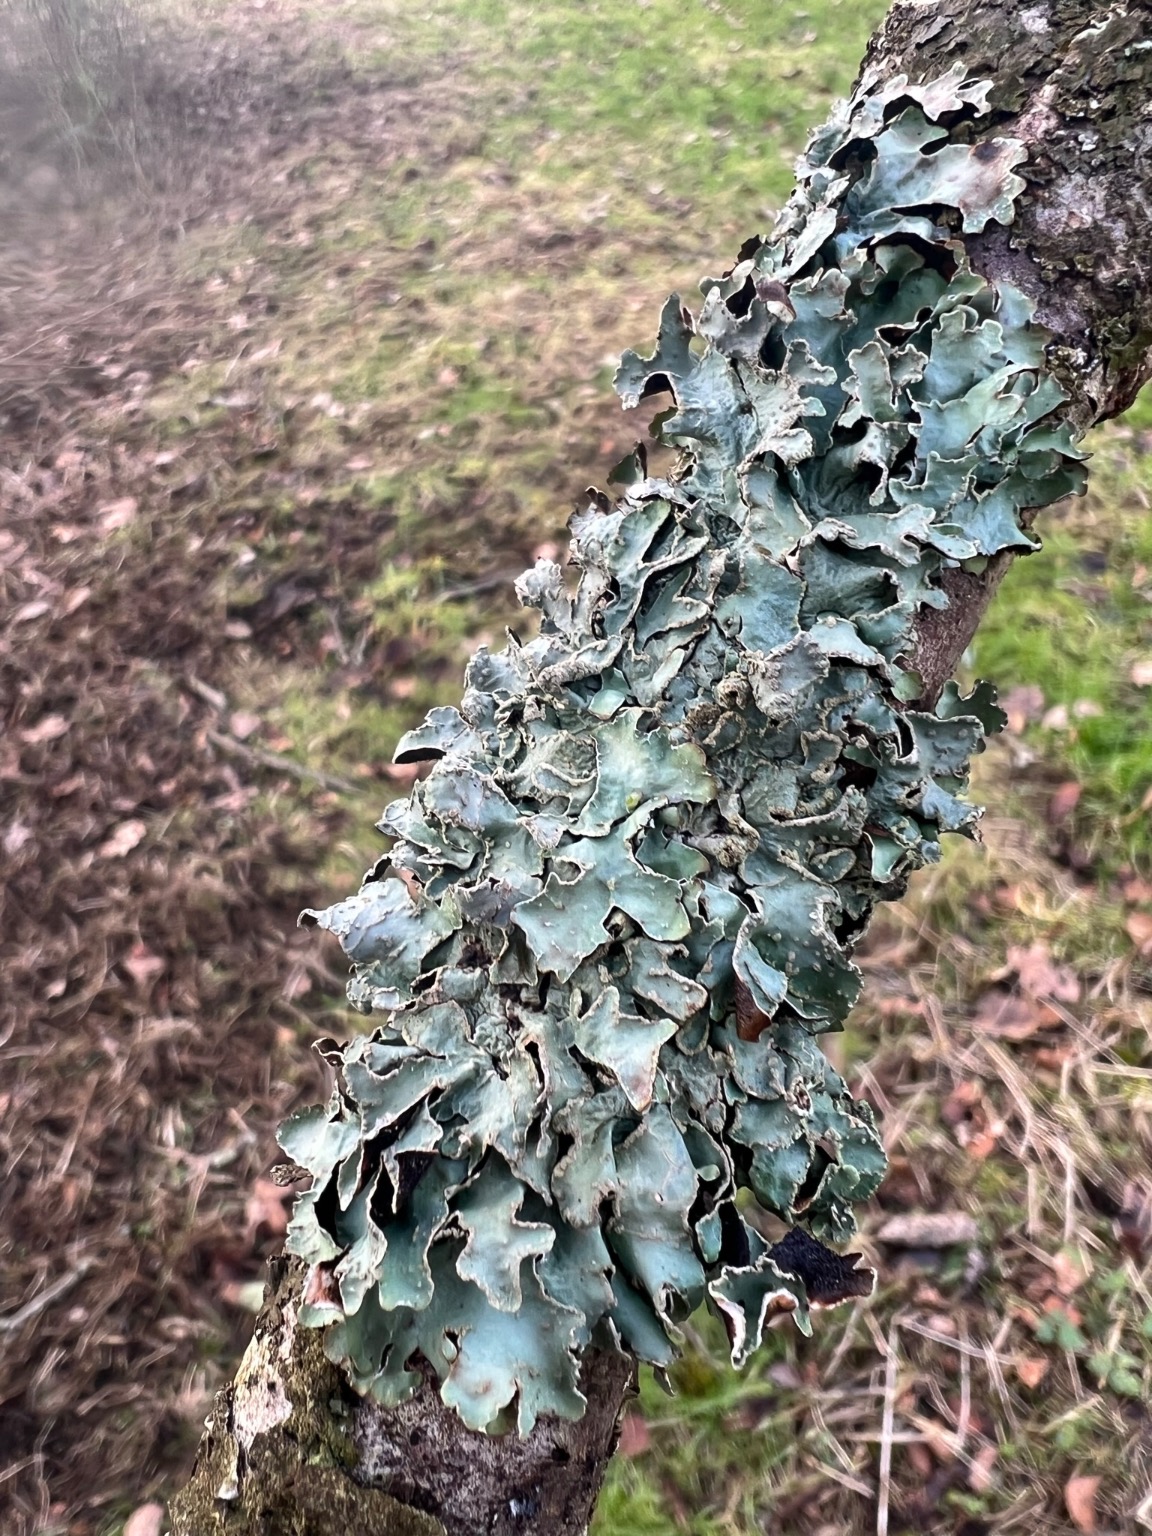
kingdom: Fungi
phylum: Ascomycota
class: Lecanoromycetes
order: Lecanorales
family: Parmeliaceae
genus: Parmelia
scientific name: Parmelia sulcata
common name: Rynket skållav
